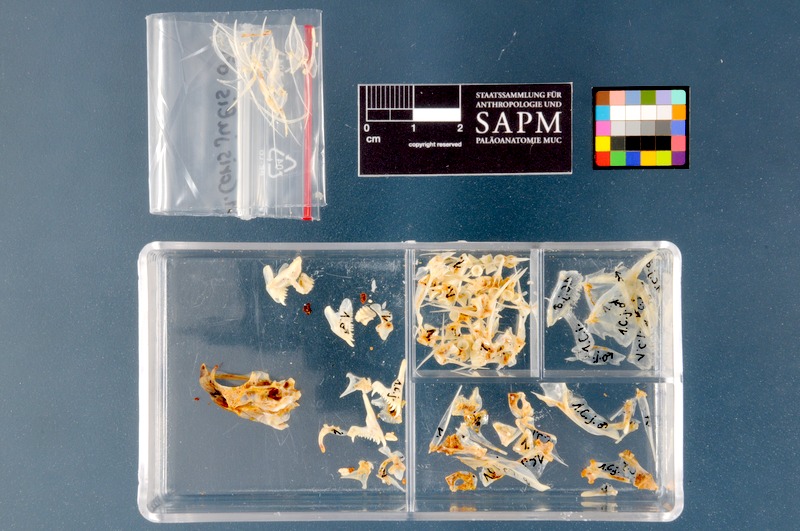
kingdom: Animalia
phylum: Chordata
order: Perciformes
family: Labridae
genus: Coris
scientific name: Coris julis
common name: Rainbow wrasse
